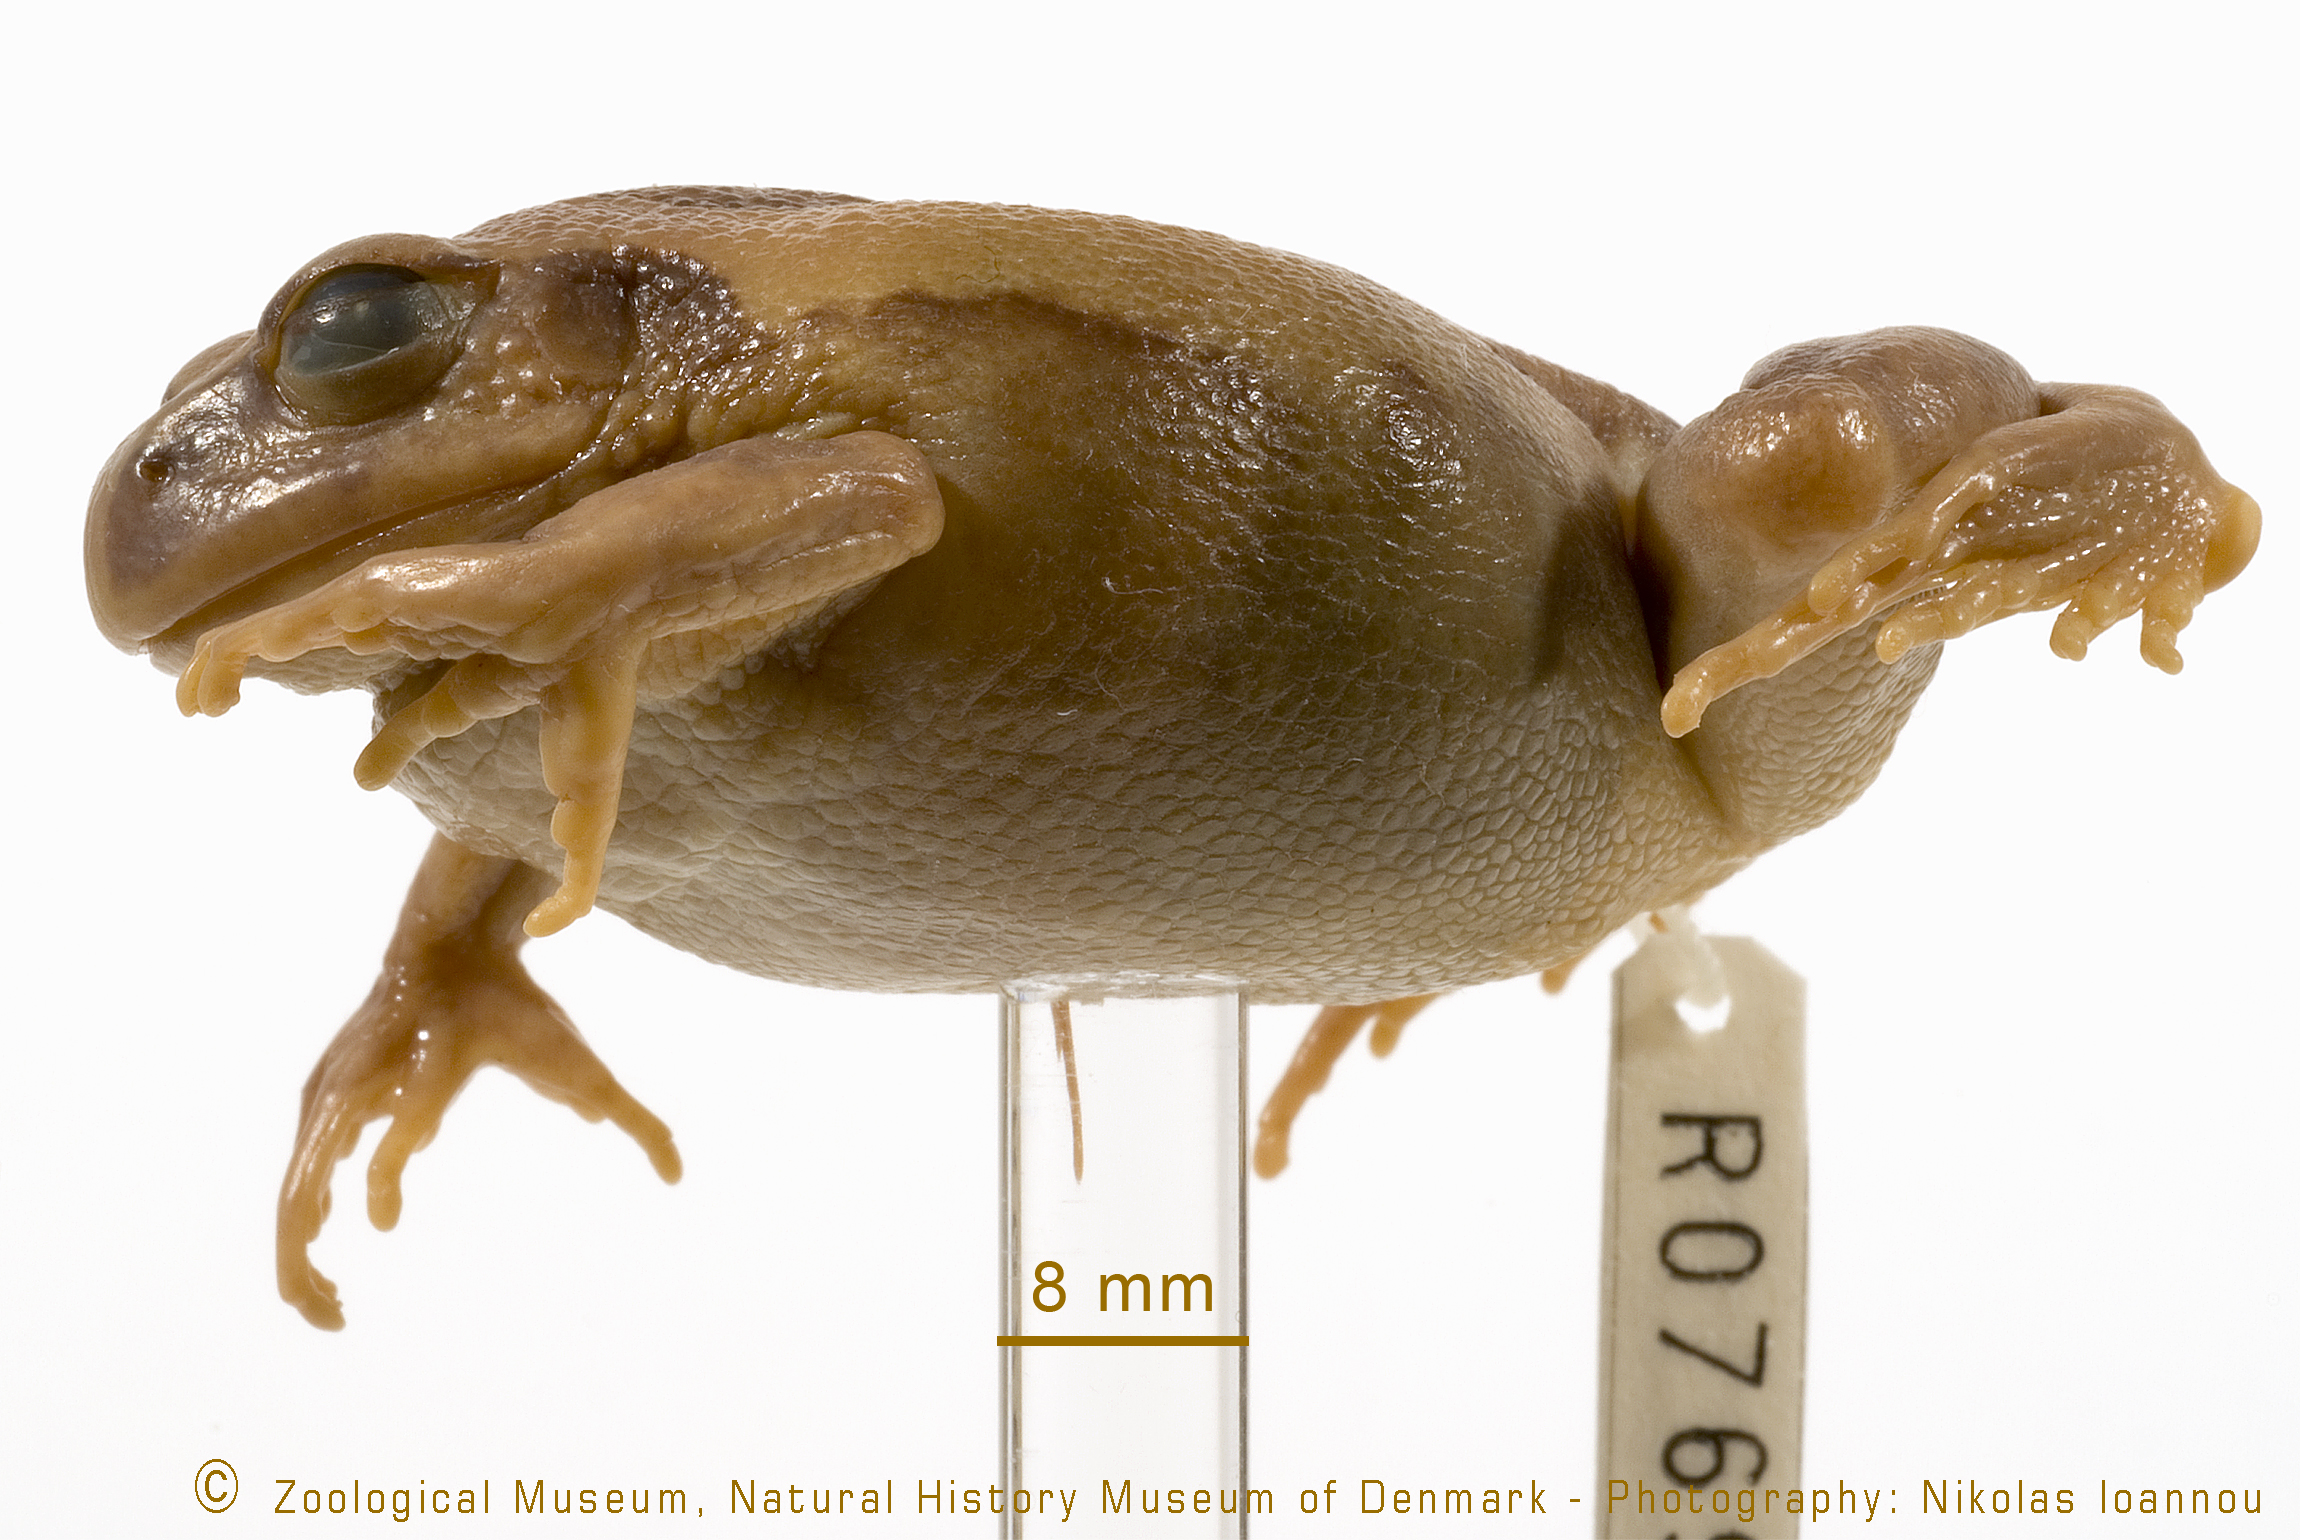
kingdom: Animalia
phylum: Chordata
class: Amphibia
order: Anura
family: Arthroleptidae
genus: Leptopelis
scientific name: Leptopelis bocagii
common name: Bocage's frog
